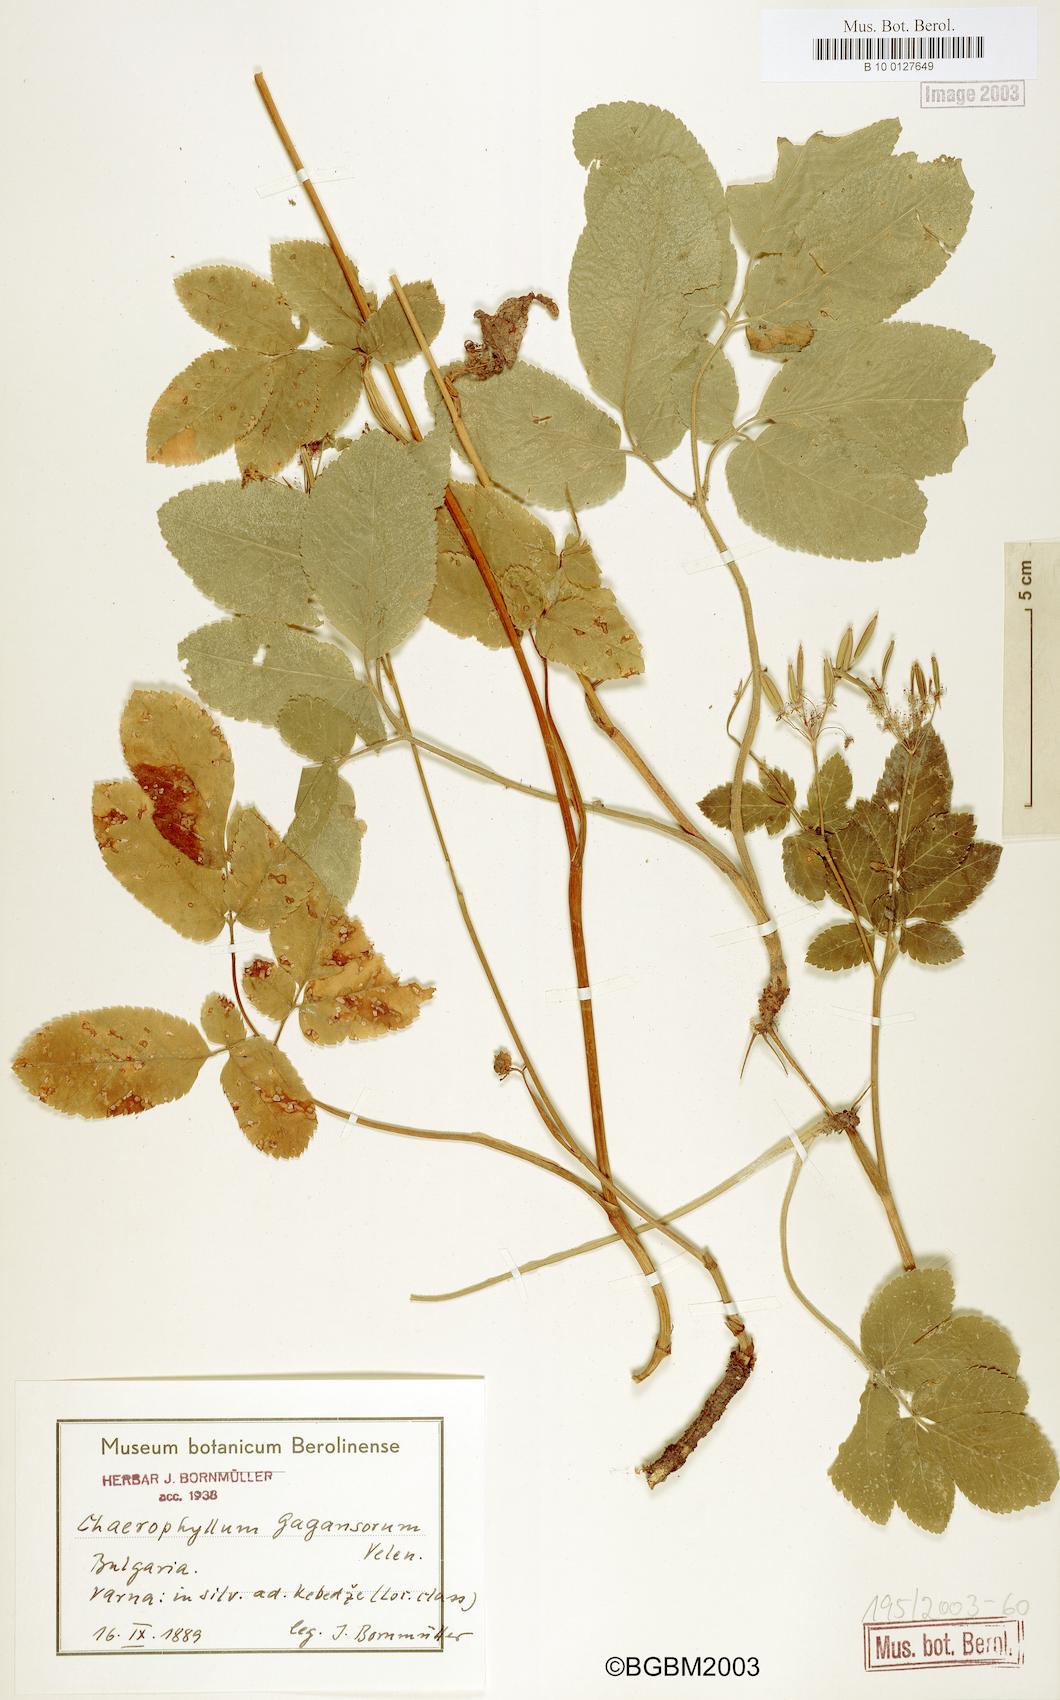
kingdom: Plantae
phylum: Tracheophyta
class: Magnoliopsida
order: Apiales
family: Apiaceae
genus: Chaerophyllum
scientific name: Chaerophyllum byzantinum
